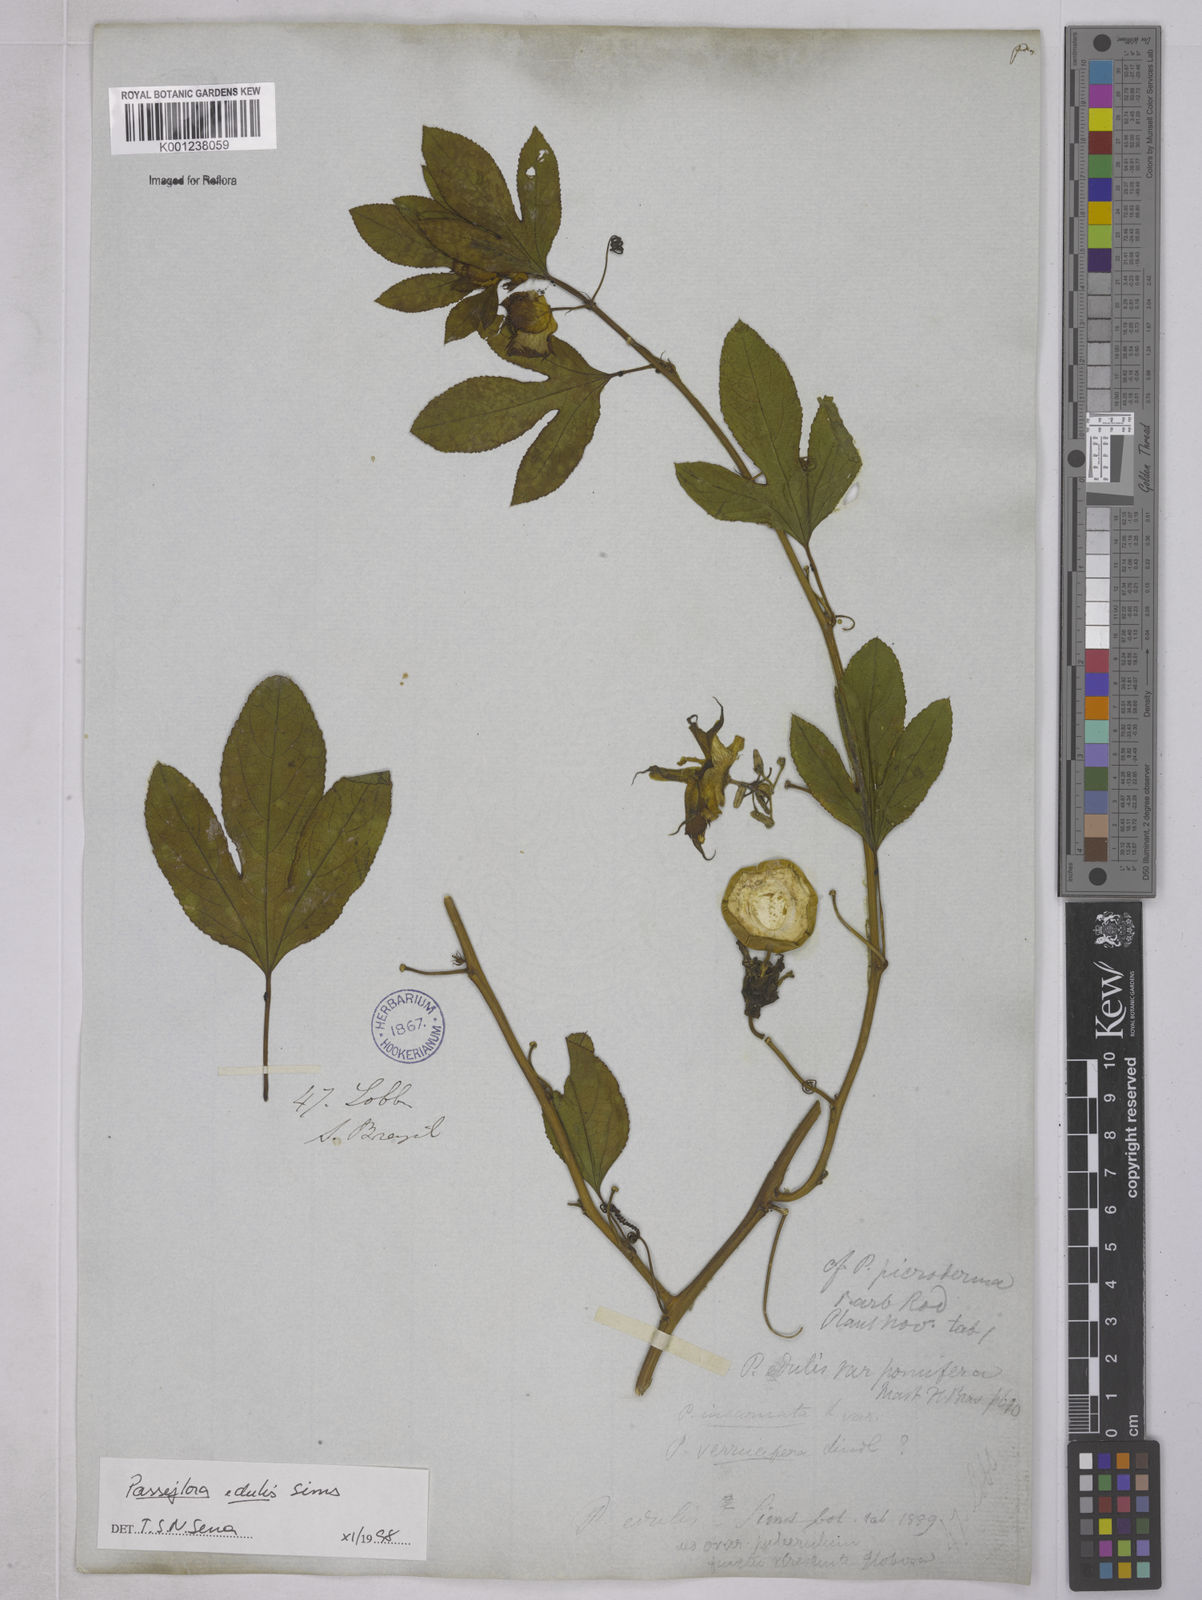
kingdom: Plantae
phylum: Tracheophyta
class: Magnoliopsida
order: Malpighiales
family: Passifloraceae
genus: Passiflora
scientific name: Passiflora edulis
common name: Purple granadilla
